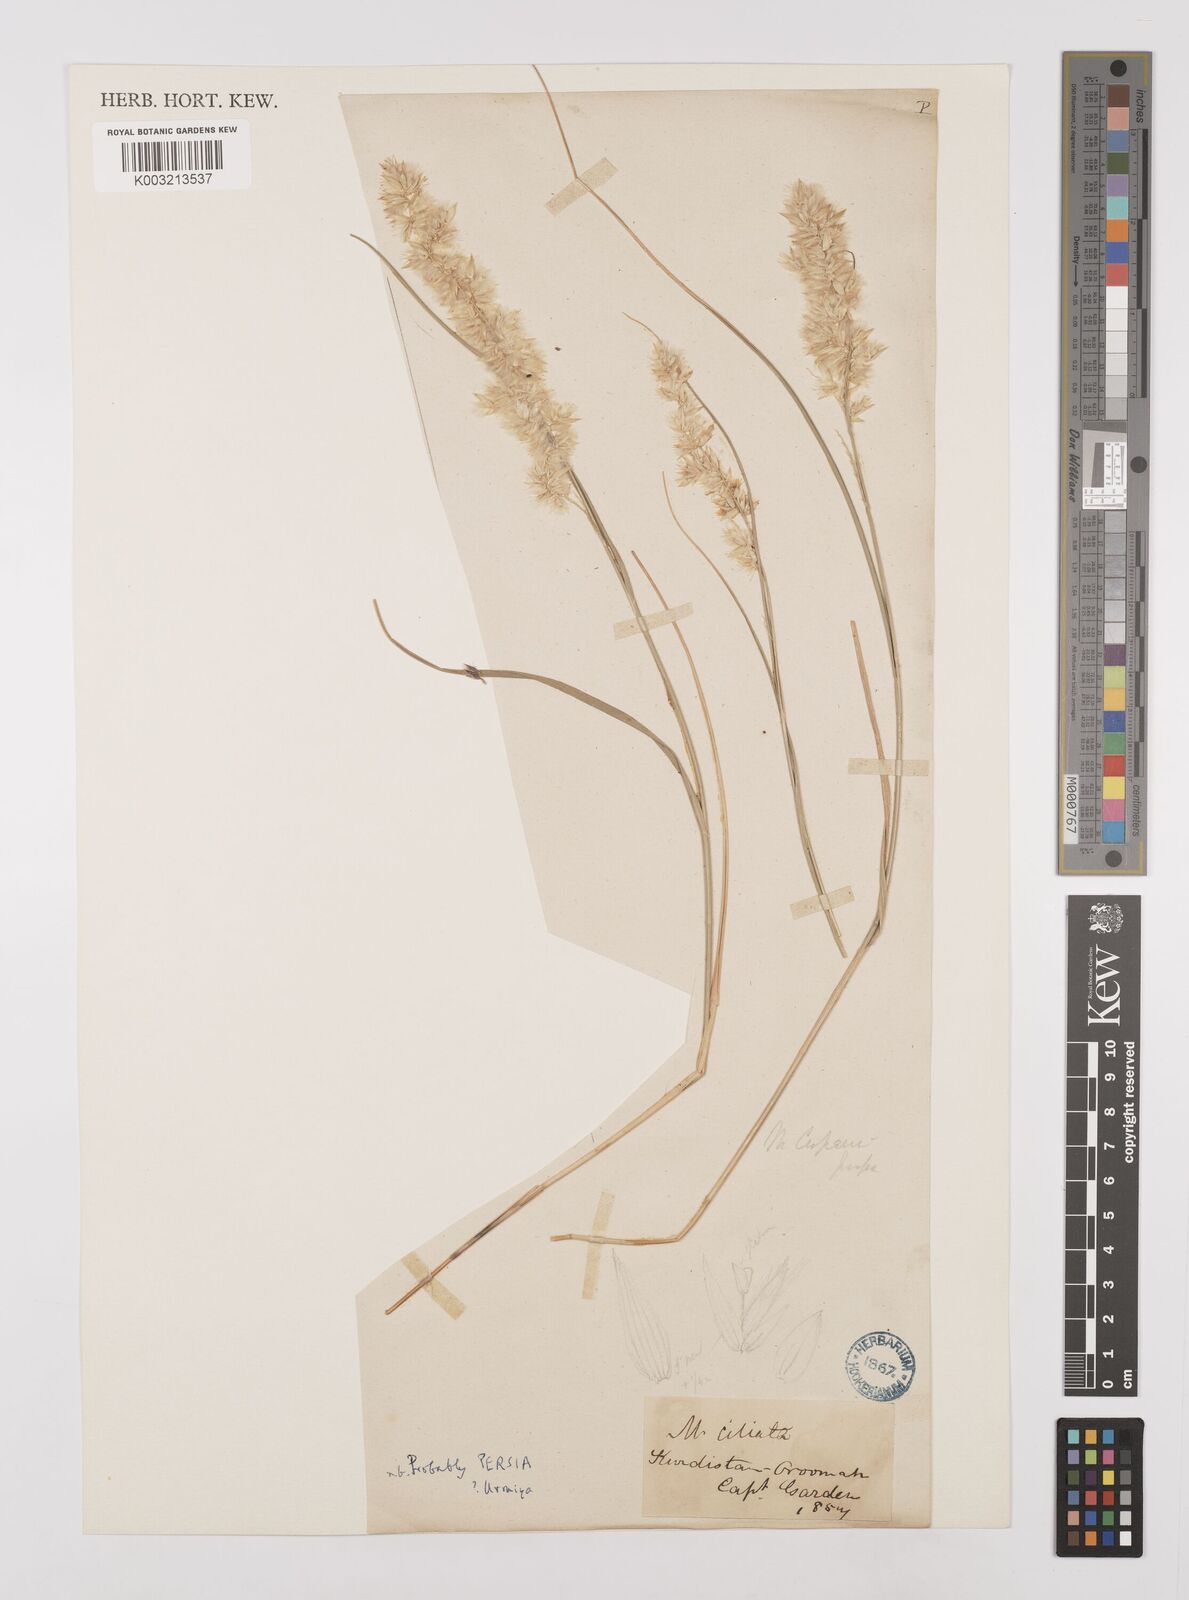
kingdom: Plantae
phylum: Tracheophyta
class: Liliopsida
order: Poales
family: Poaceae
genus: Melica
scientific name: Melica persica
